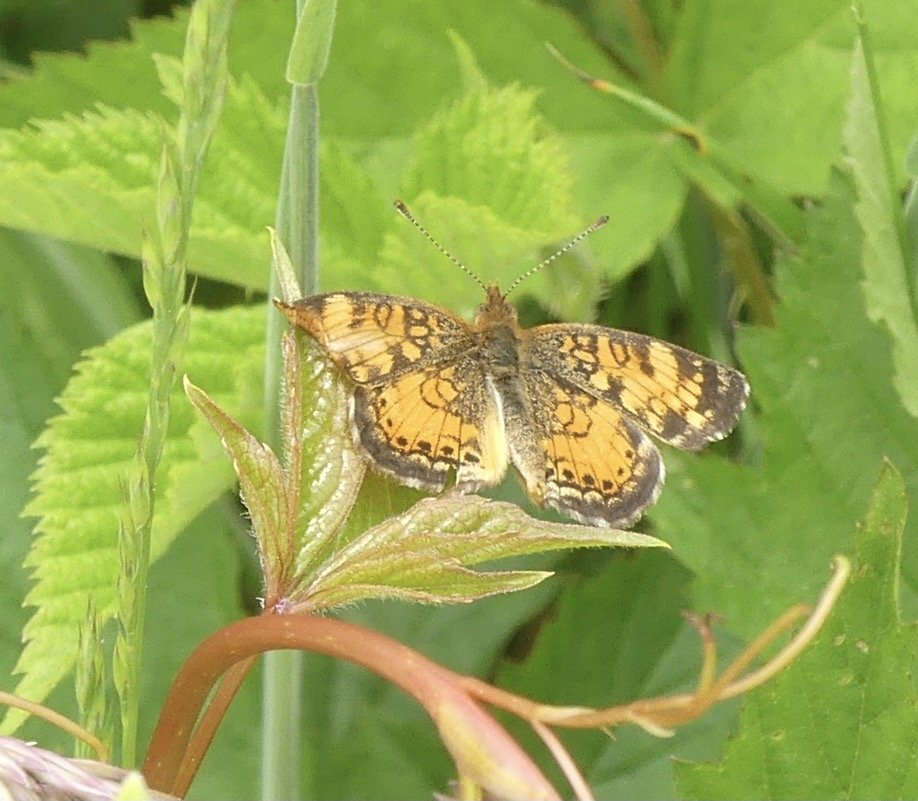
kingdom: Animalia
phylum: Arthropoda
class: Insecta
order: Lepidoptera
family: Nymphalidae
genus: Phyciodes
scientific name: Phyciodes tharos
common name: Pearl Crescent
